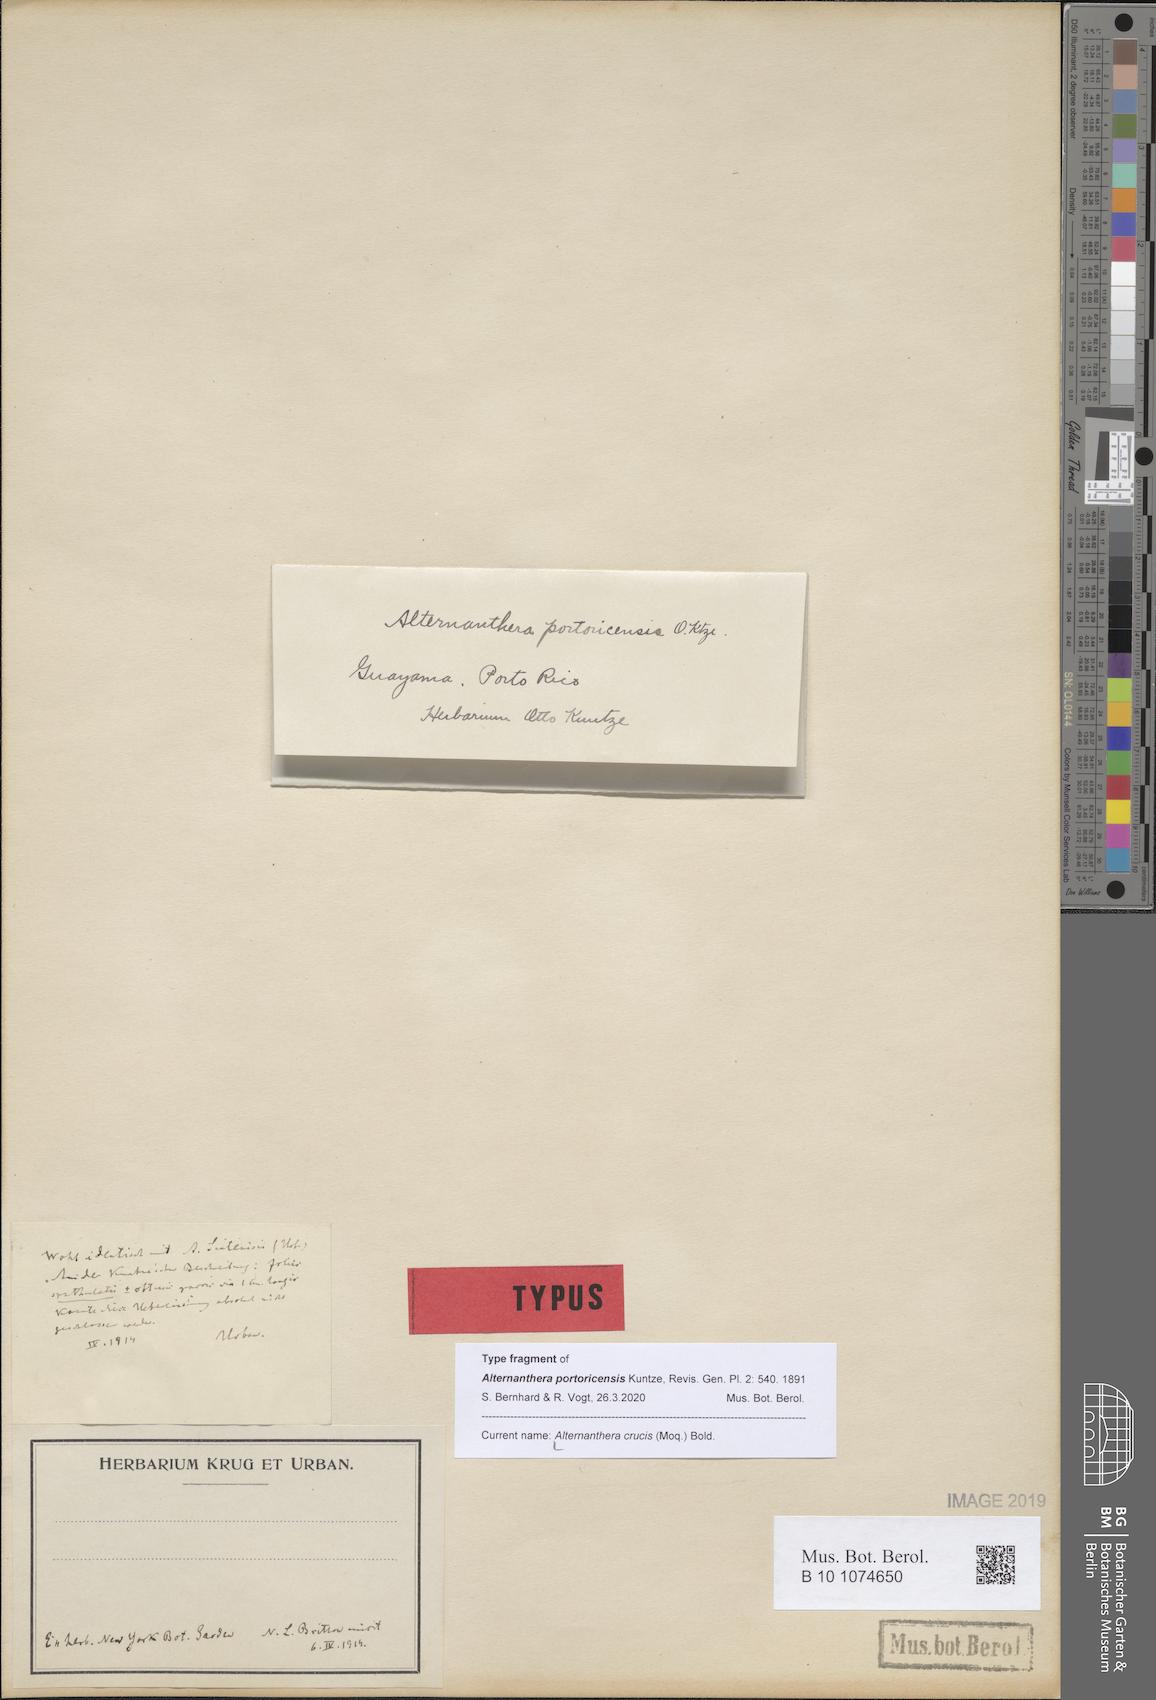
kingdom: Plantae
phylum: Tracheophyta
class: Magnoliopsida
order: Caryophyllales
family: Amaranthaceae
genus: Alternanthera
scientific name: Alternanthera crucis
